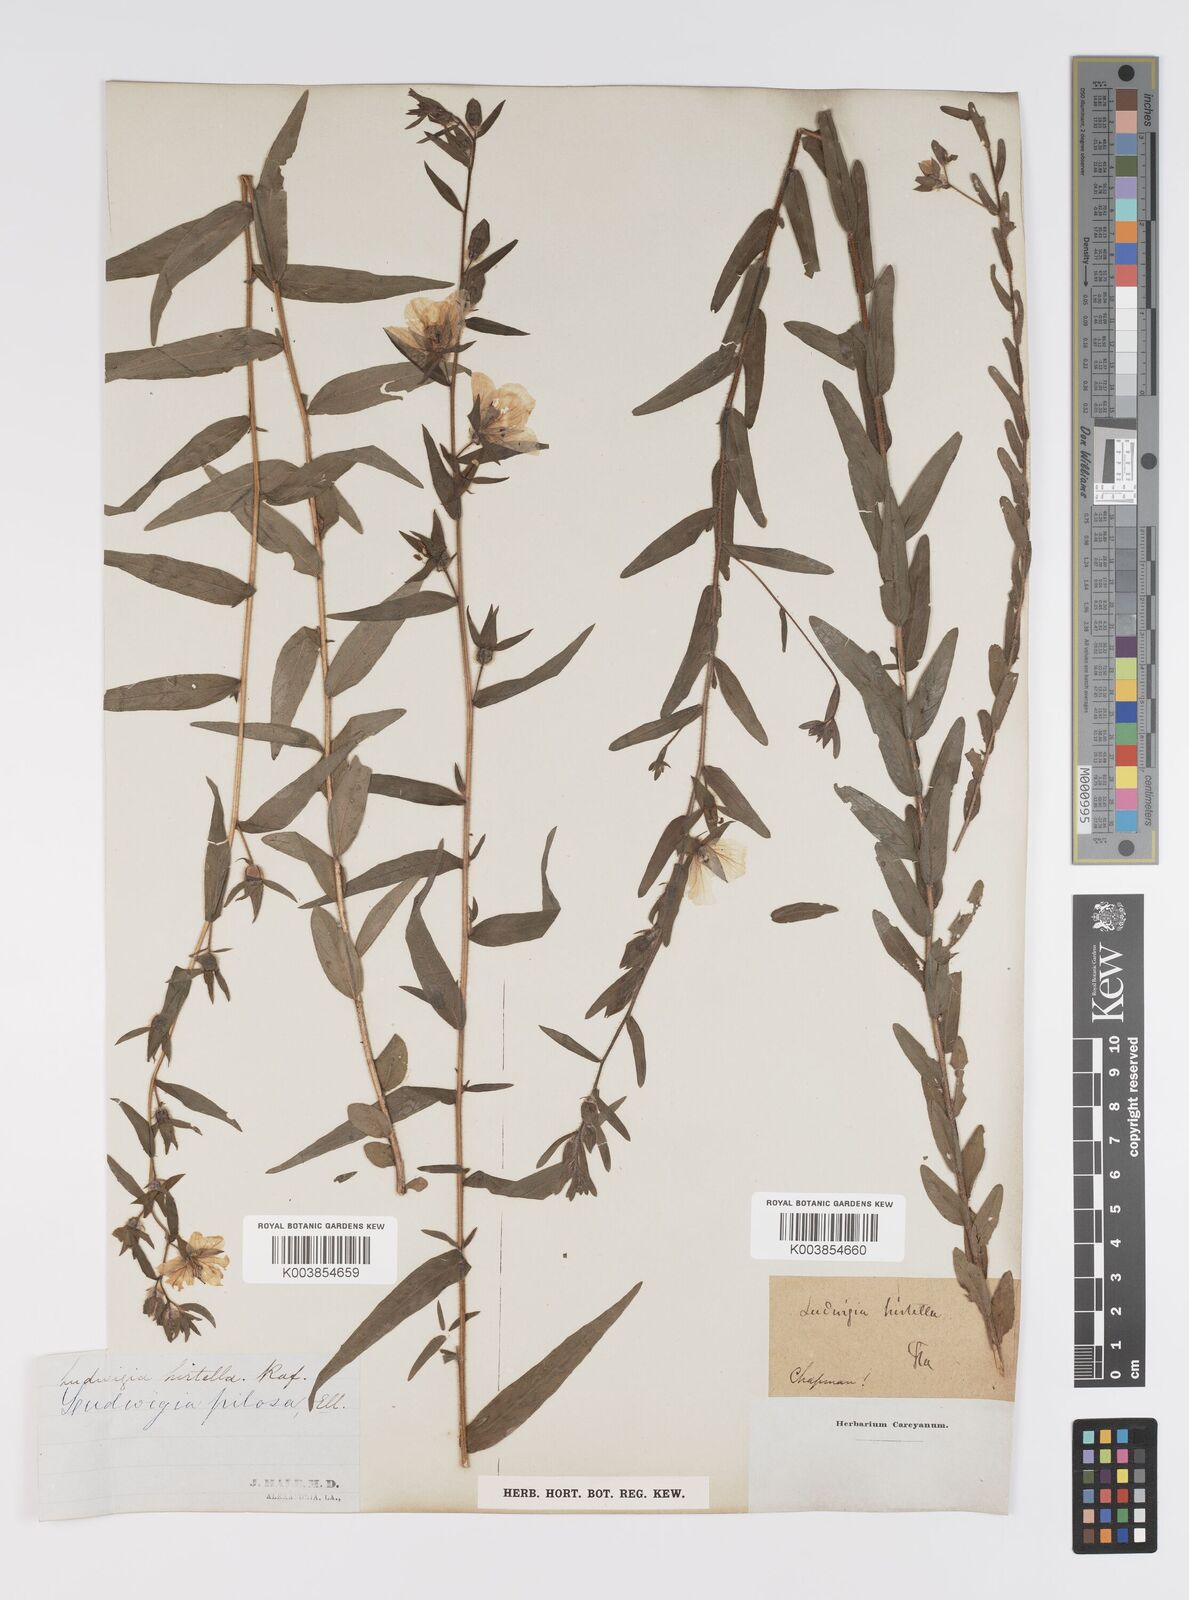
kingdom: Plantae
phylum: Tracheophyta
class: Magnoliopsida
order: Myrtales
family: Onagraceae
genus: Ludwigia
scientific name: Ludwigia hirtella
